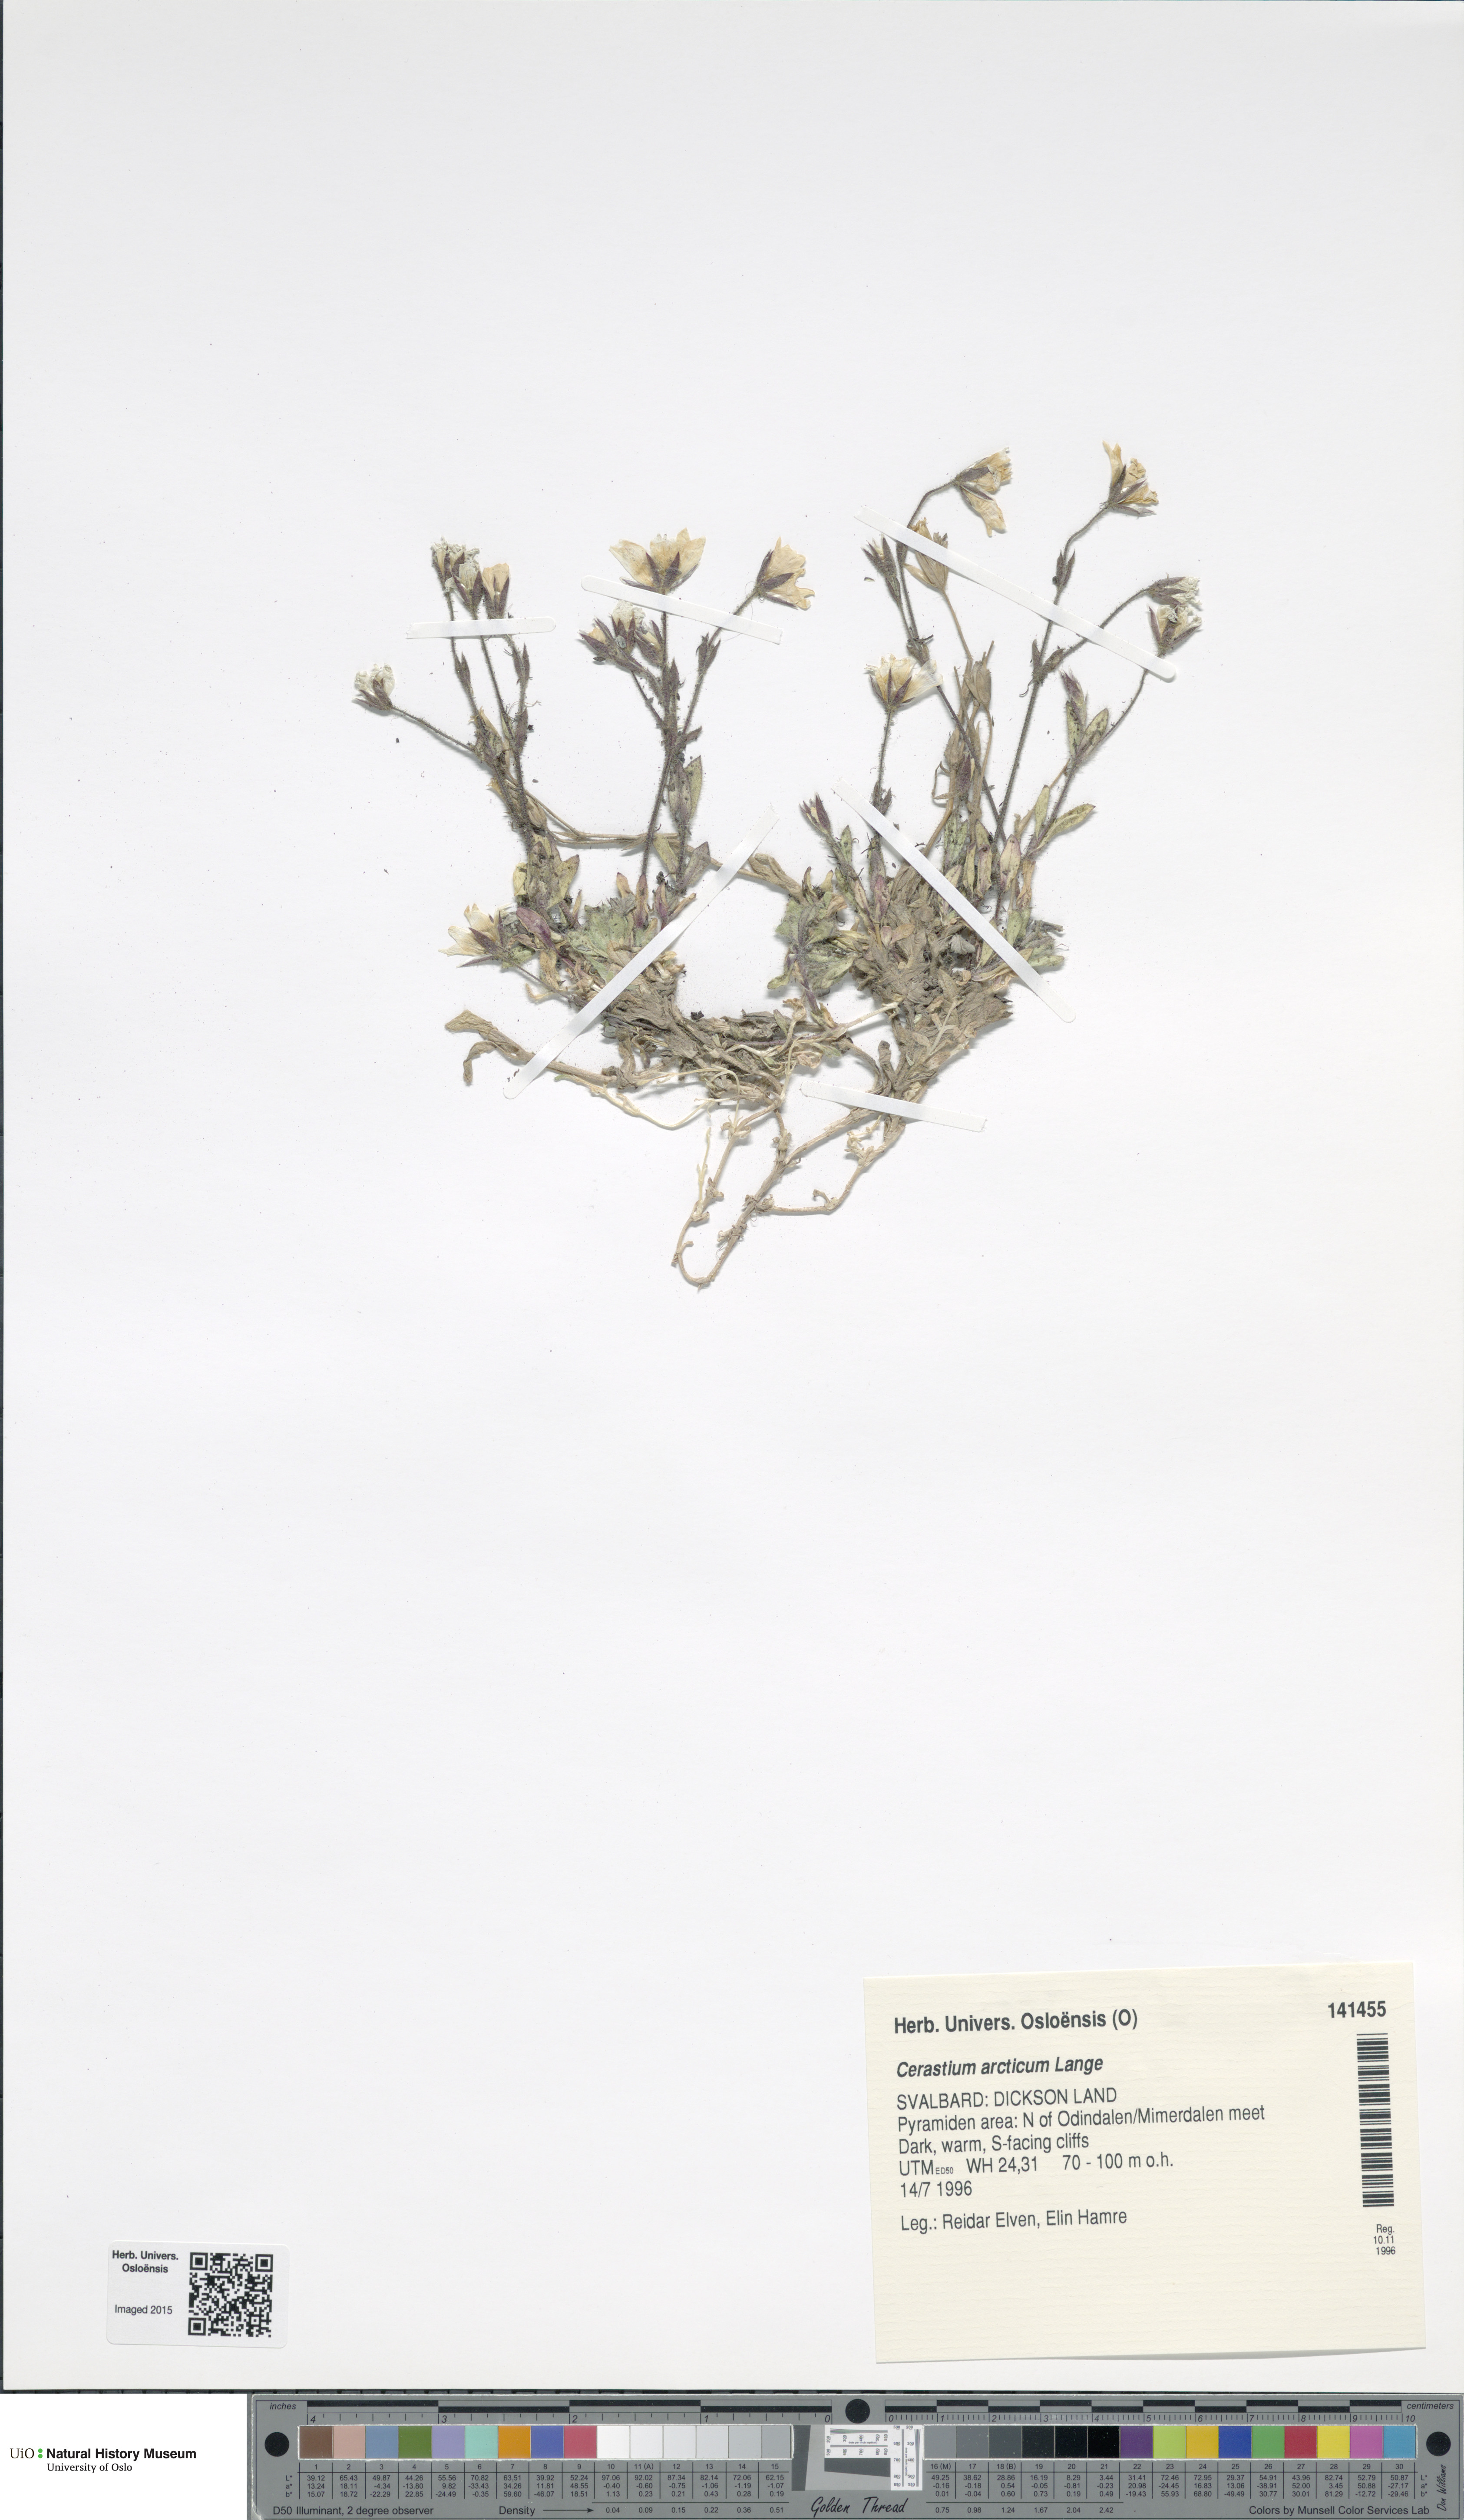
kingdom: Plantae
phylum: Tracheophyta
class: Magnoliopsida
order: Caryophyllales
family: Caryophyllaceae
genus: Cerastium
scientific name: Cerastium arcticum
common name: Arctic mouse-ear
